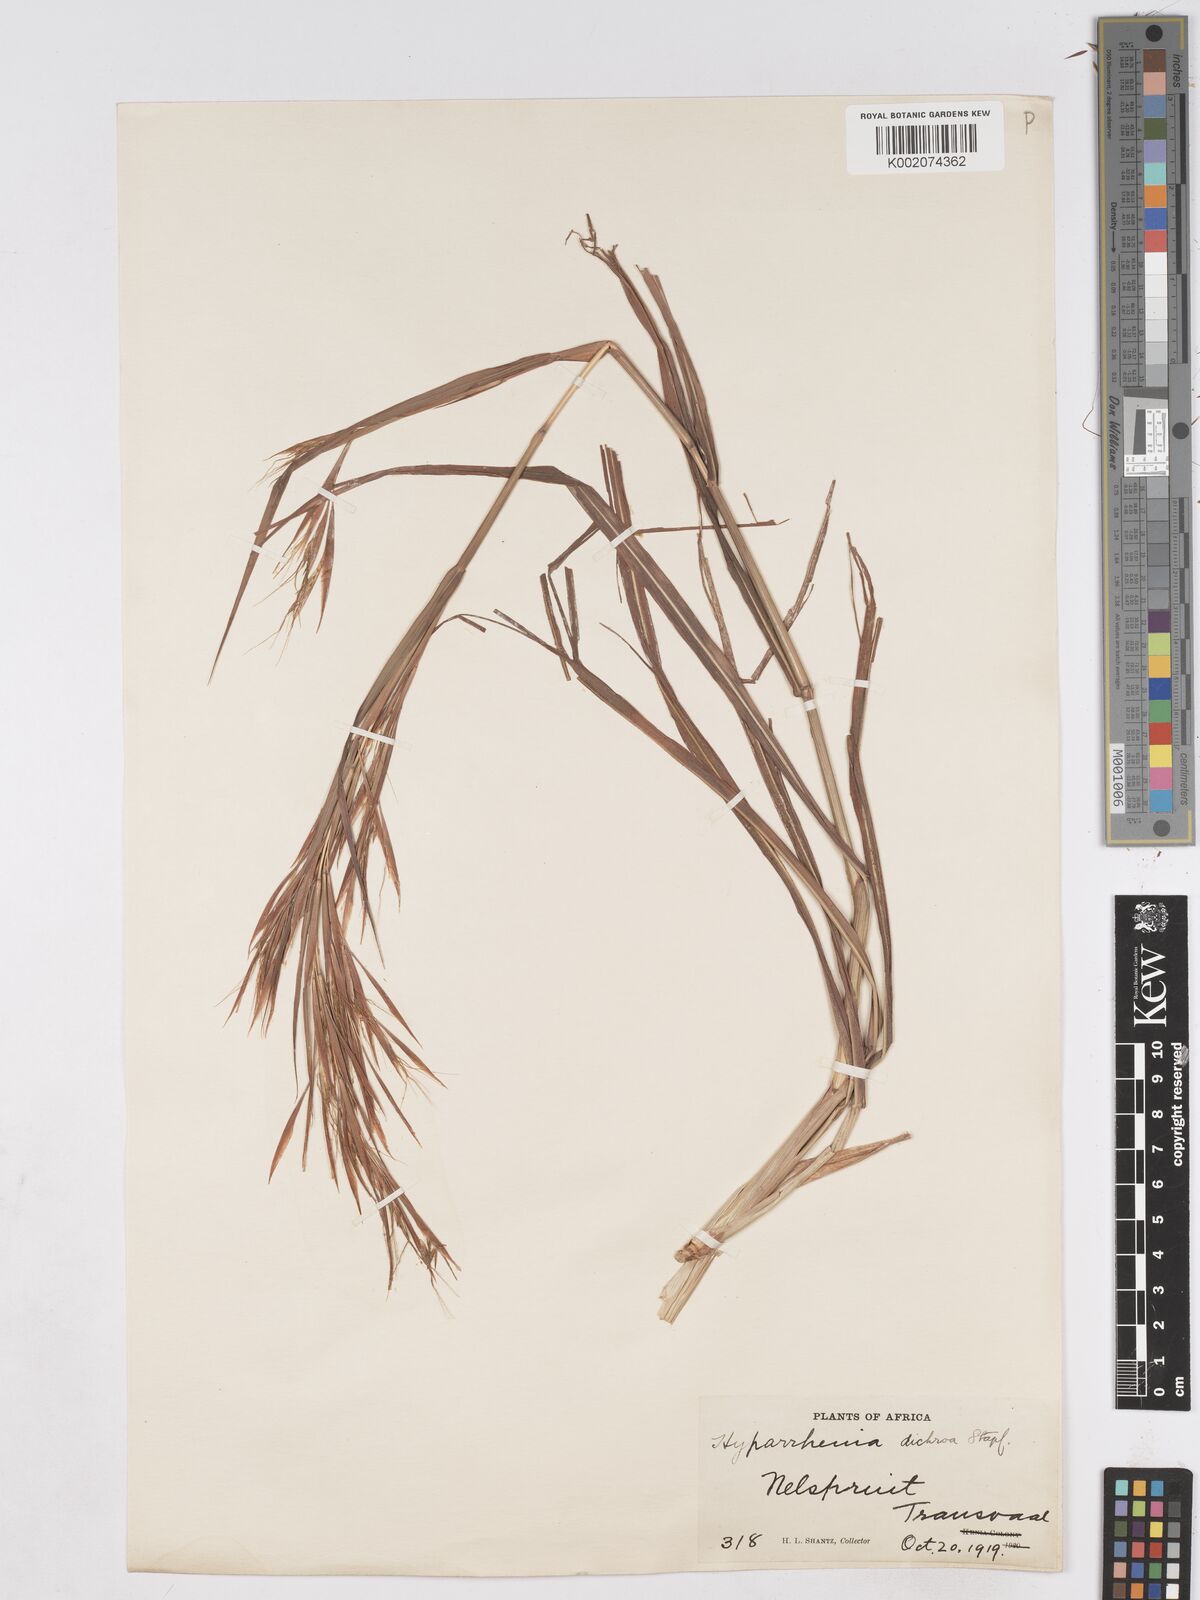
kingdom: Plantae
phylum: Tracheophyta
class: Liliopsida
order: Poales
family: Poaceae
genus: Hyparrhenia
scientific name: Hyparrhenia dichroa
